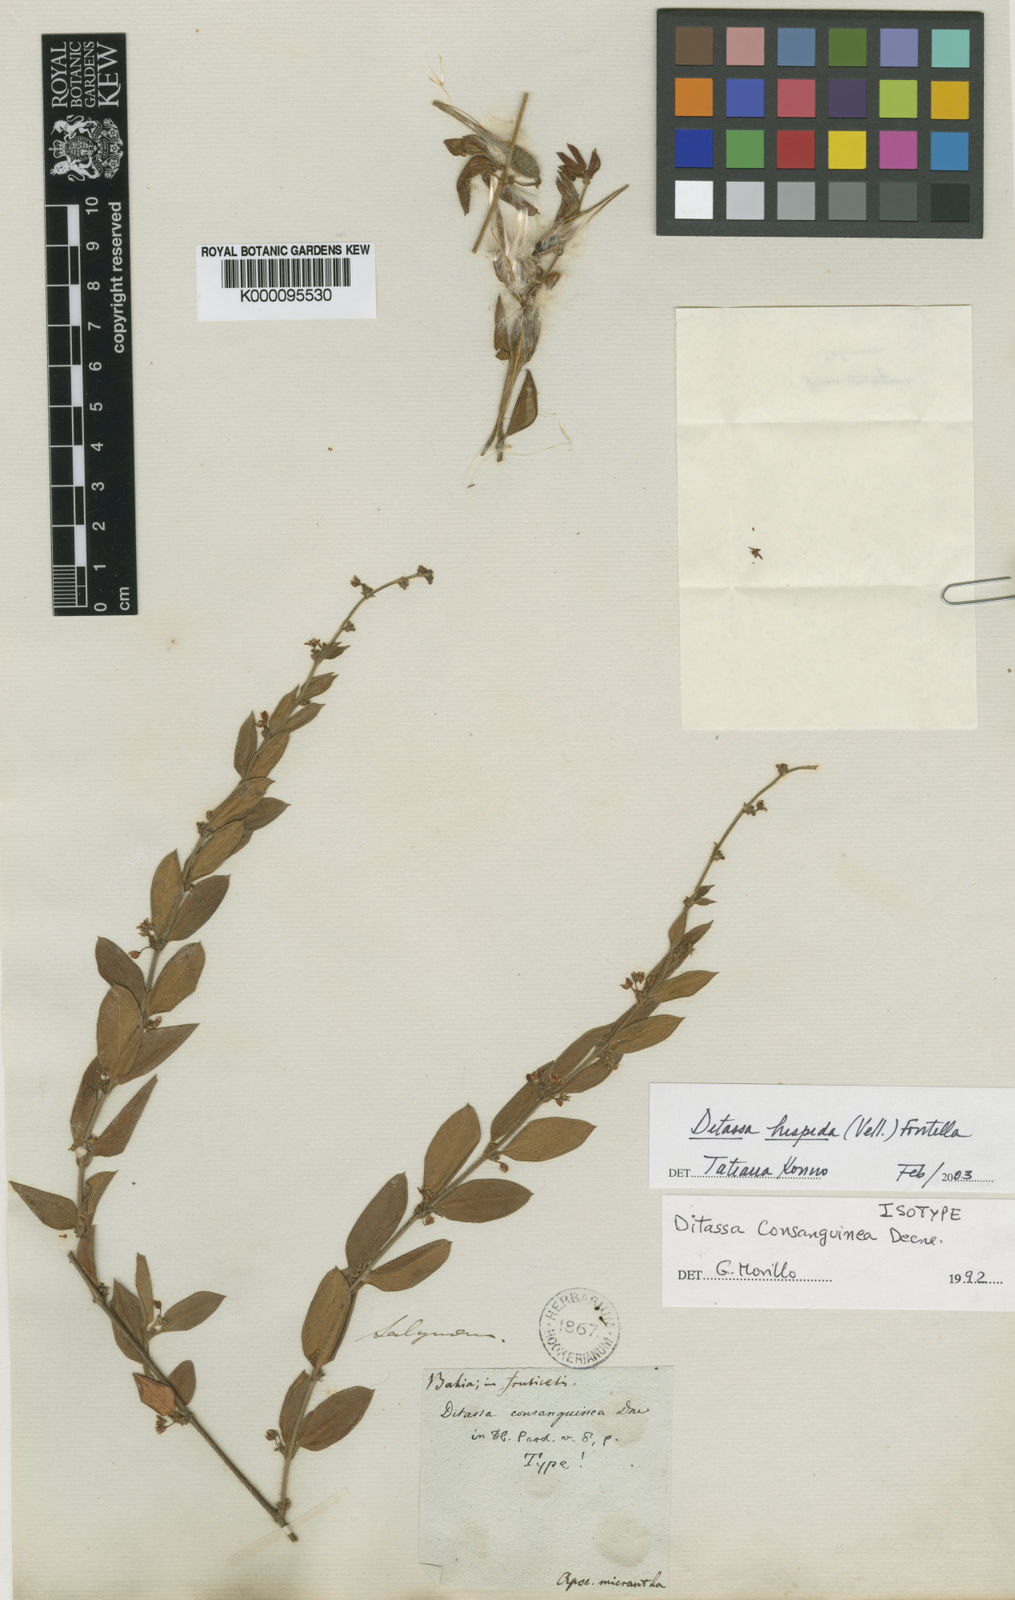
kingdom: Plantae
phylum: Tracheophyta
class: Magnoliopsida
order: Gentianales
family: Apocynaceae
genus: Ditassa
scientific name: Ditassa hispida
